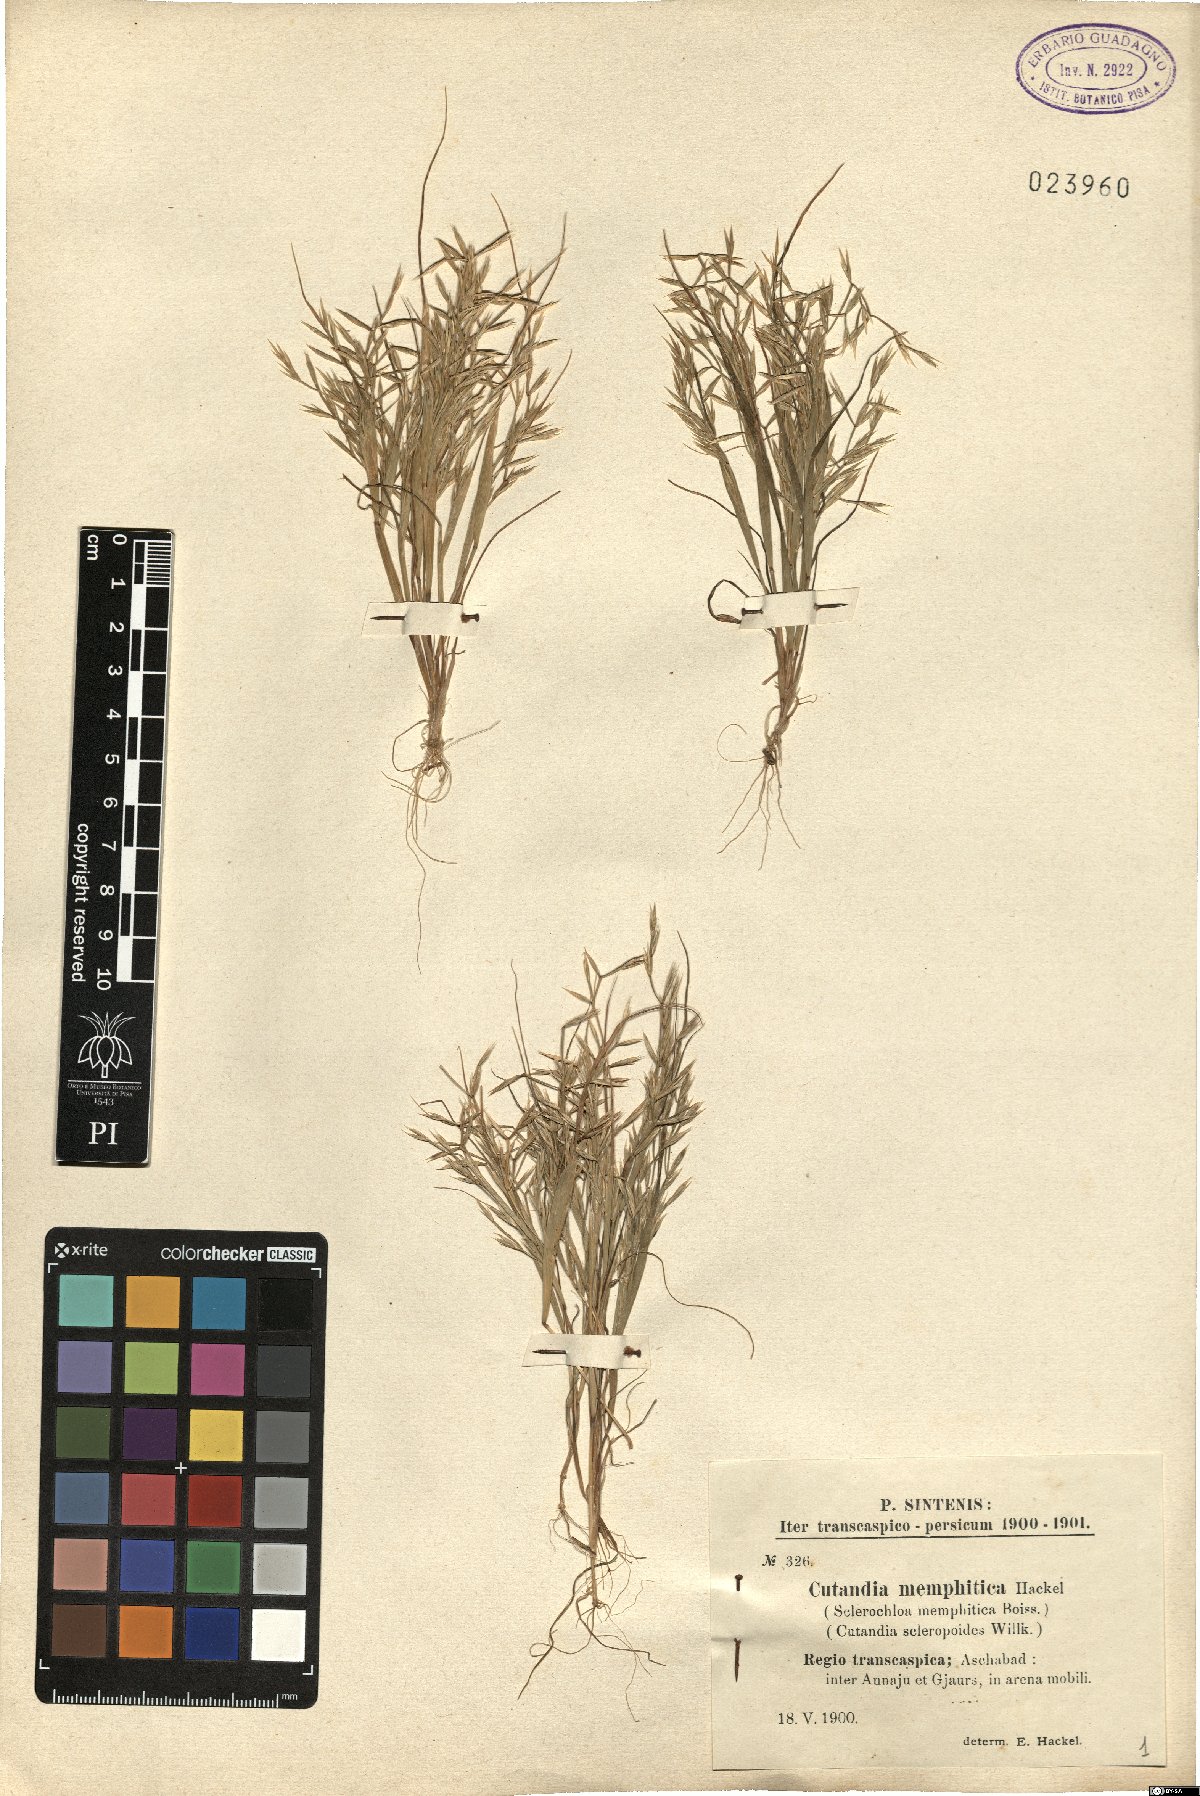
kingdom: Plantae
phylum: Tracheophyta
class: Liliopsida
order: Poales
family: Poaceae
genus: Cutandia
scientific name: Cutandia memphitica
